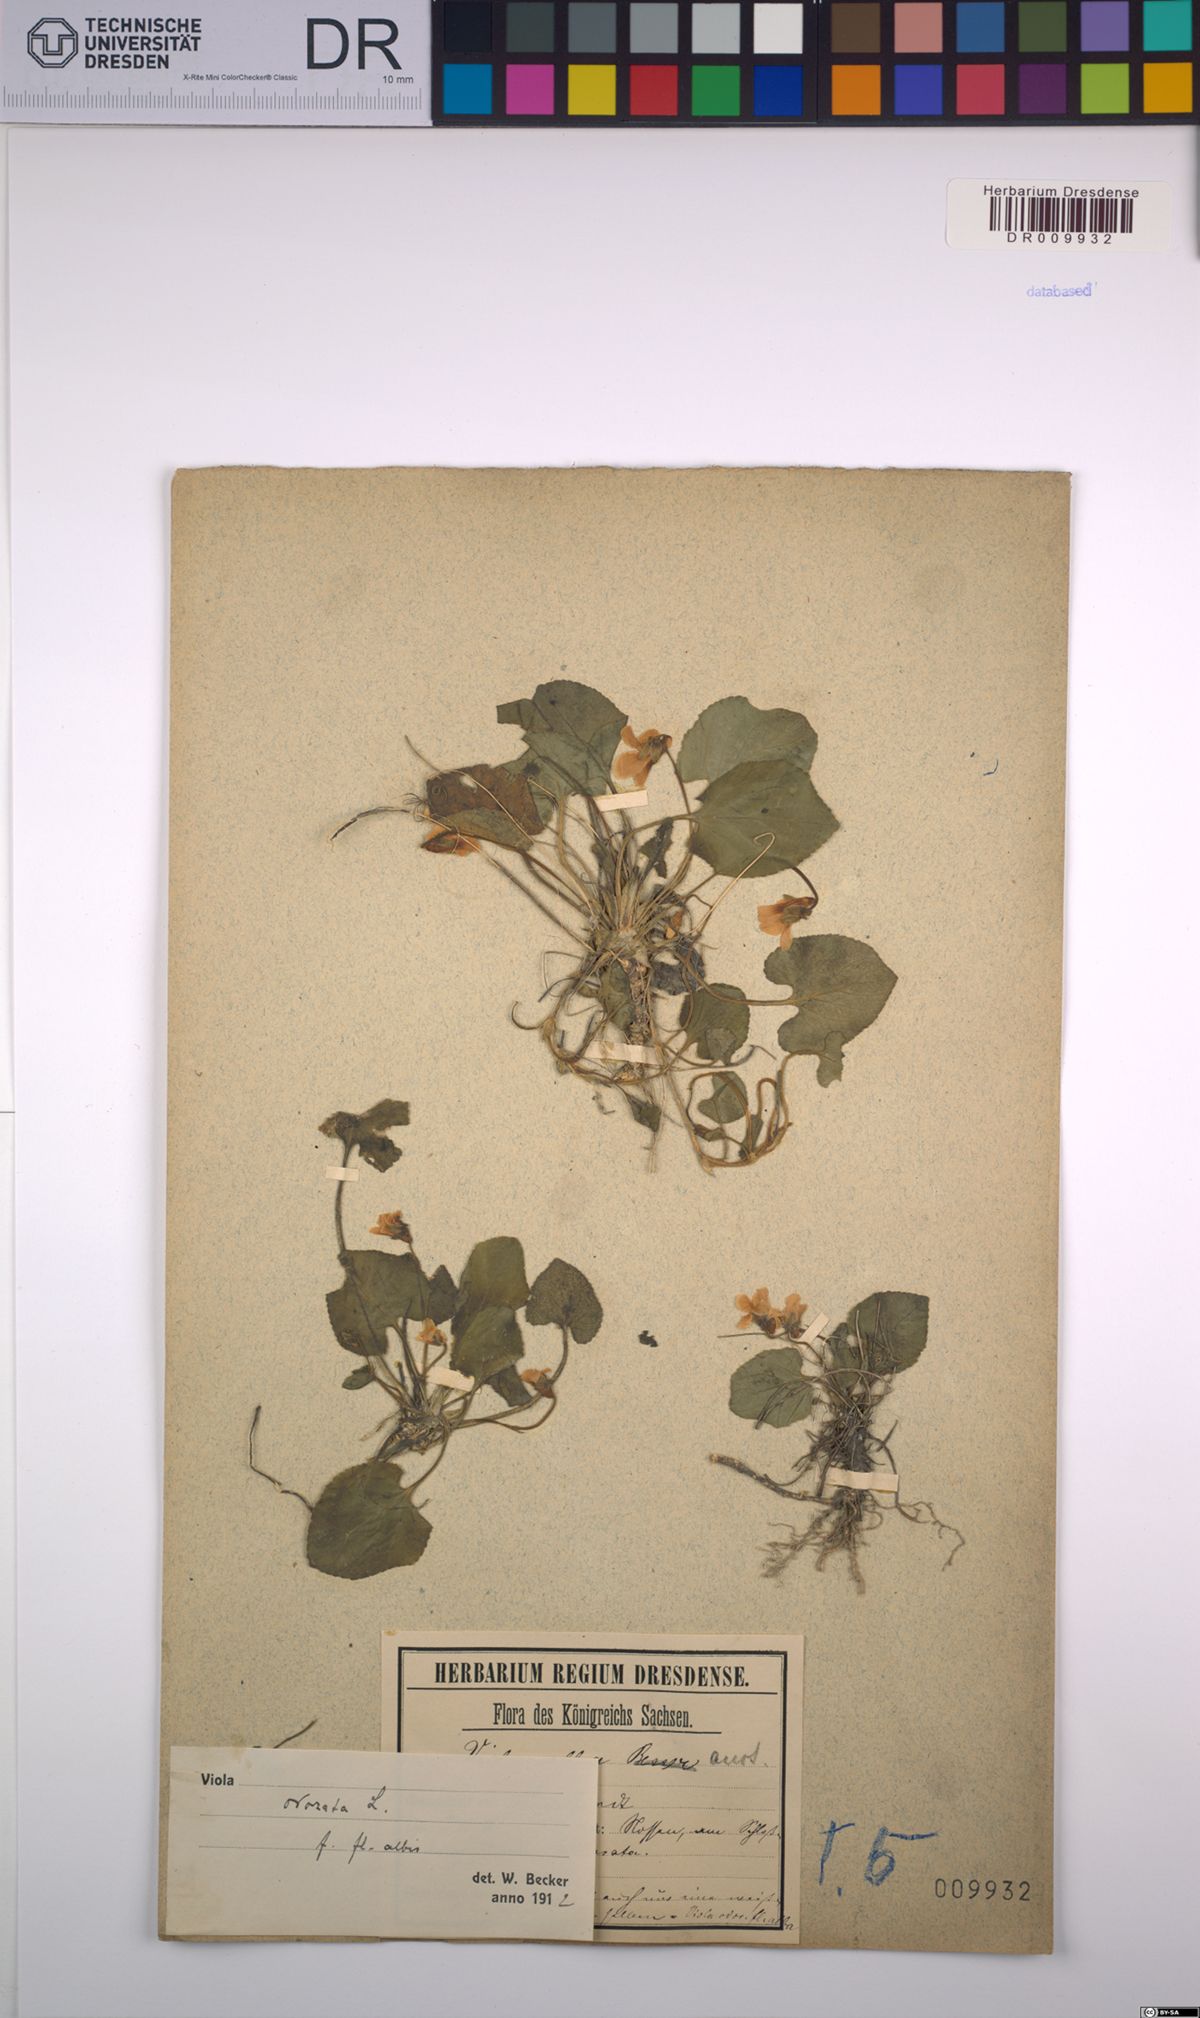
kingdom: Plantae
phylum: Tracheophyta
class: Magnoliopsida
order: Malpighiales
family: Violaceae
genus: Viola
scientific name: Viola odorata
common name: Sweet violet
